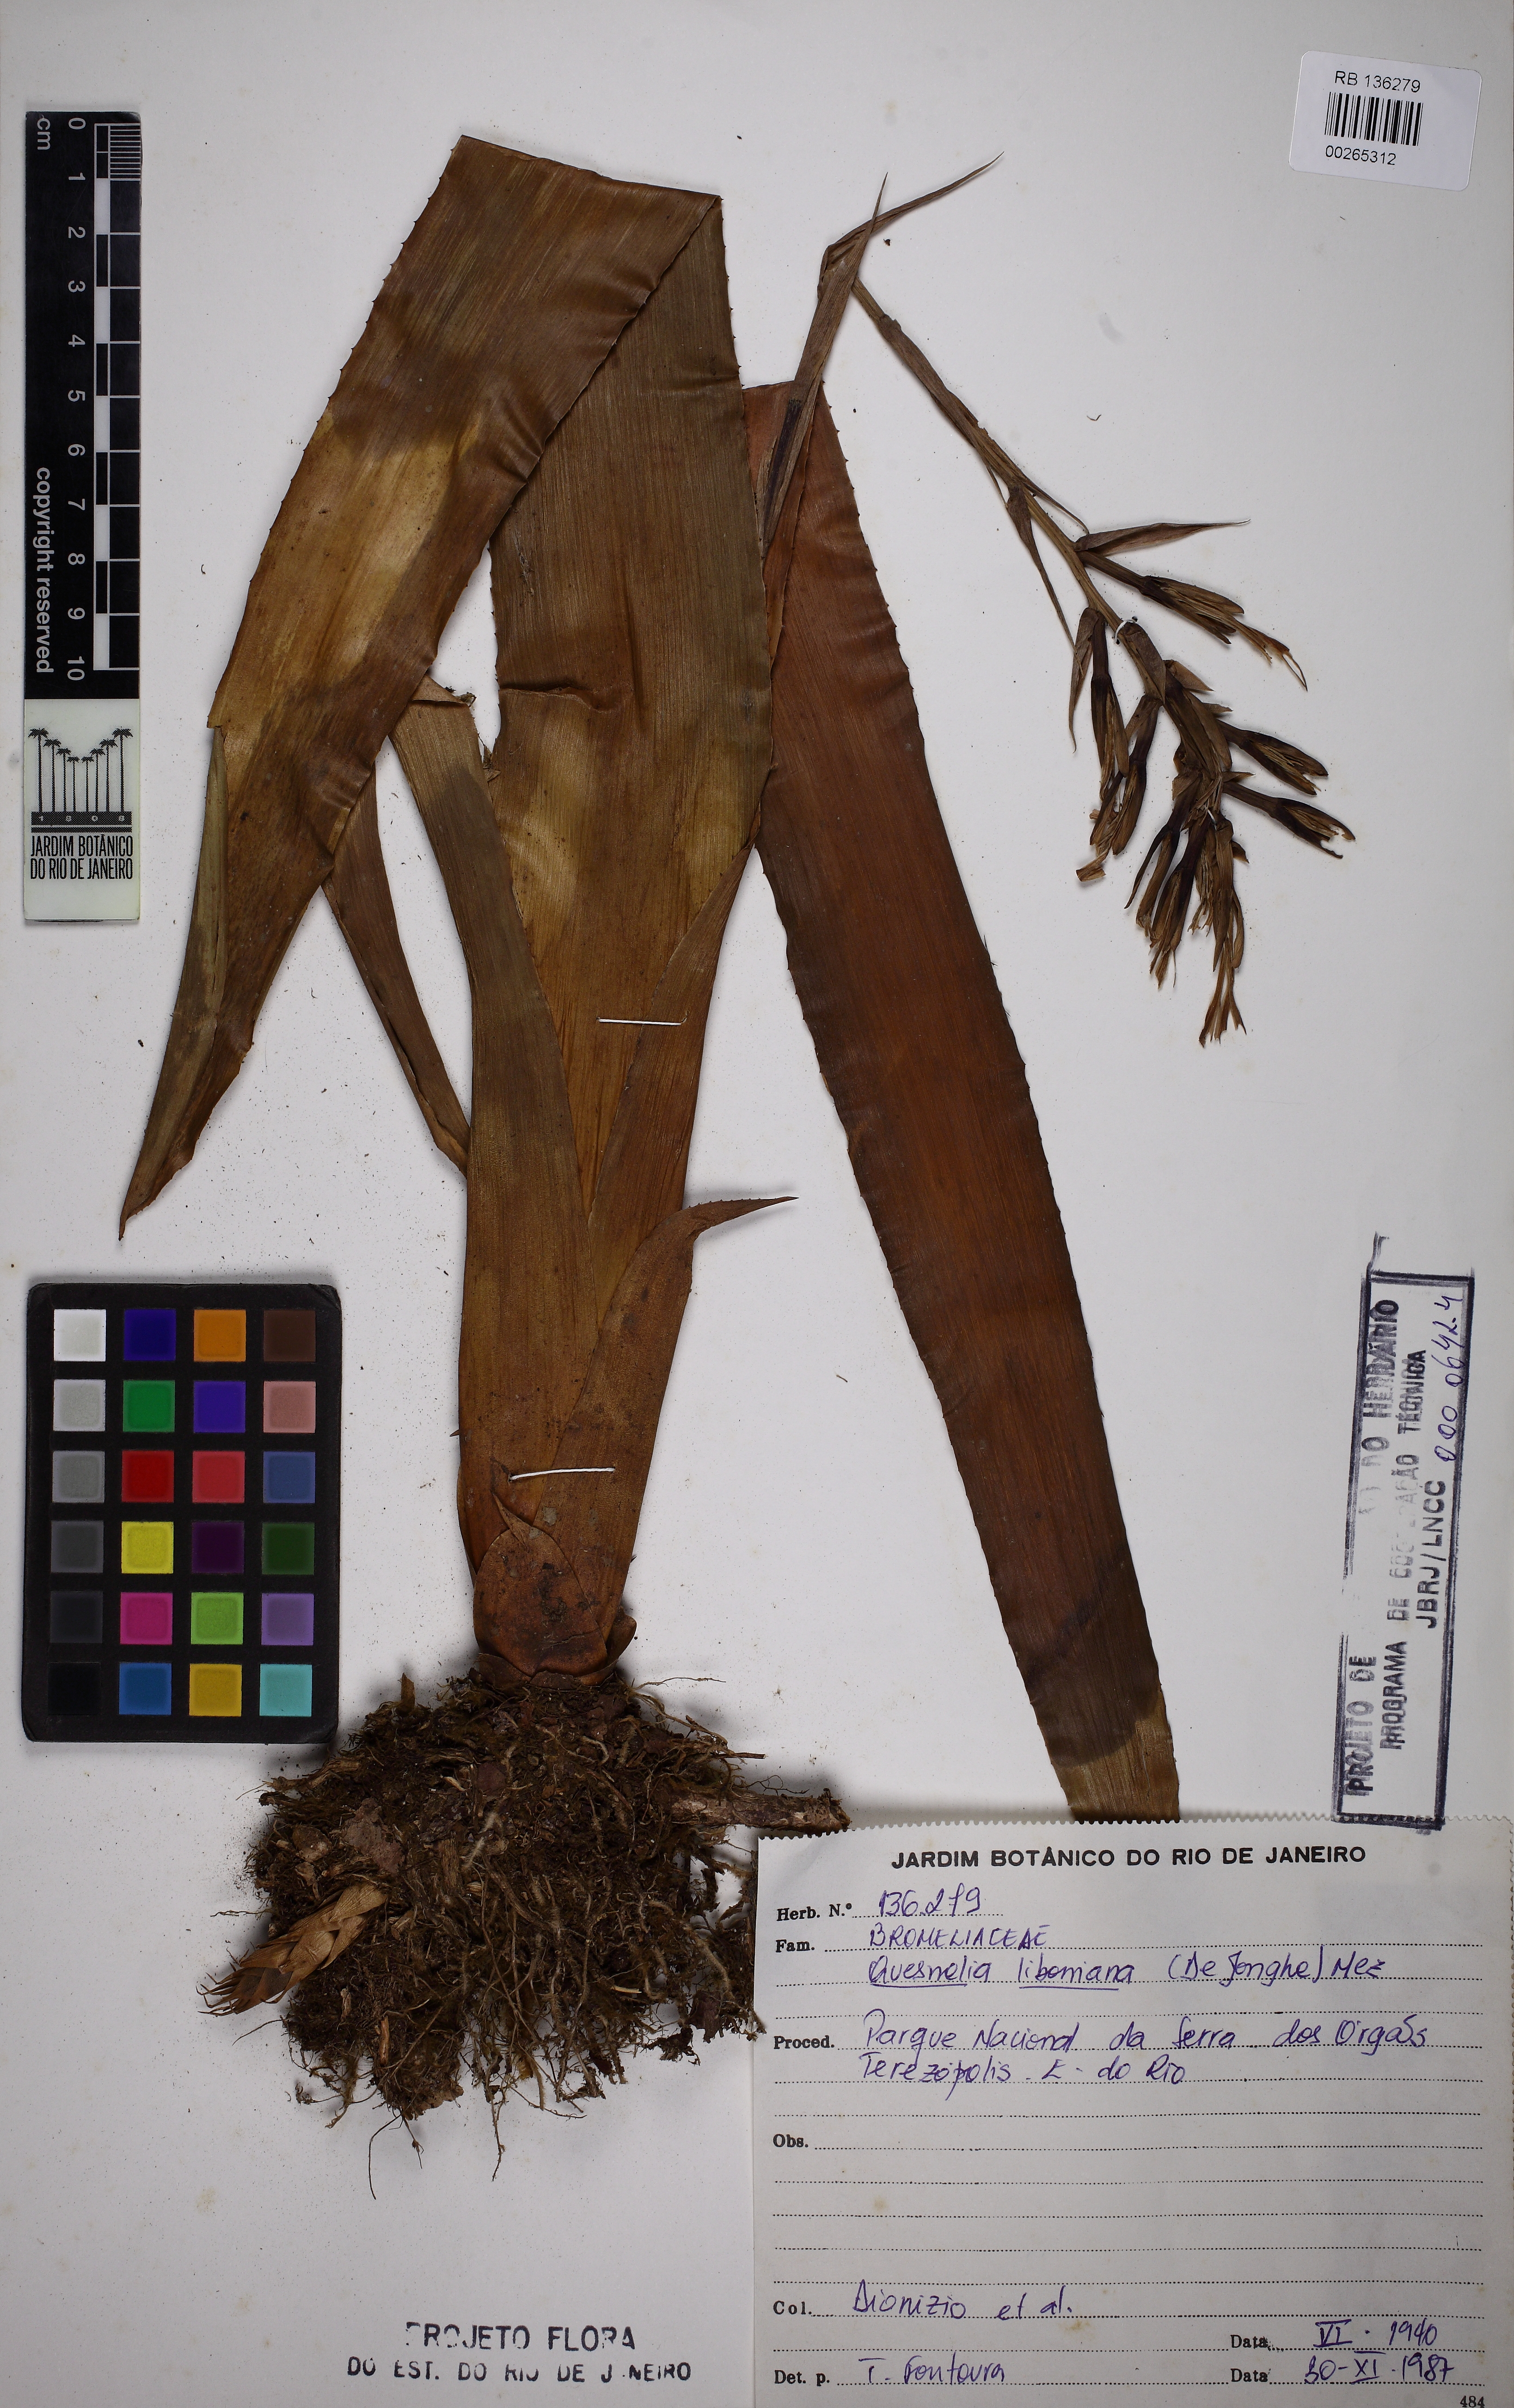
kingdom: Plantae
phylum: Tracheophyta
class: Liliopsida
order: Poales
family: Bromeliaceae
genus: Quesnelia
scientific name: Quesnelia liboniana
